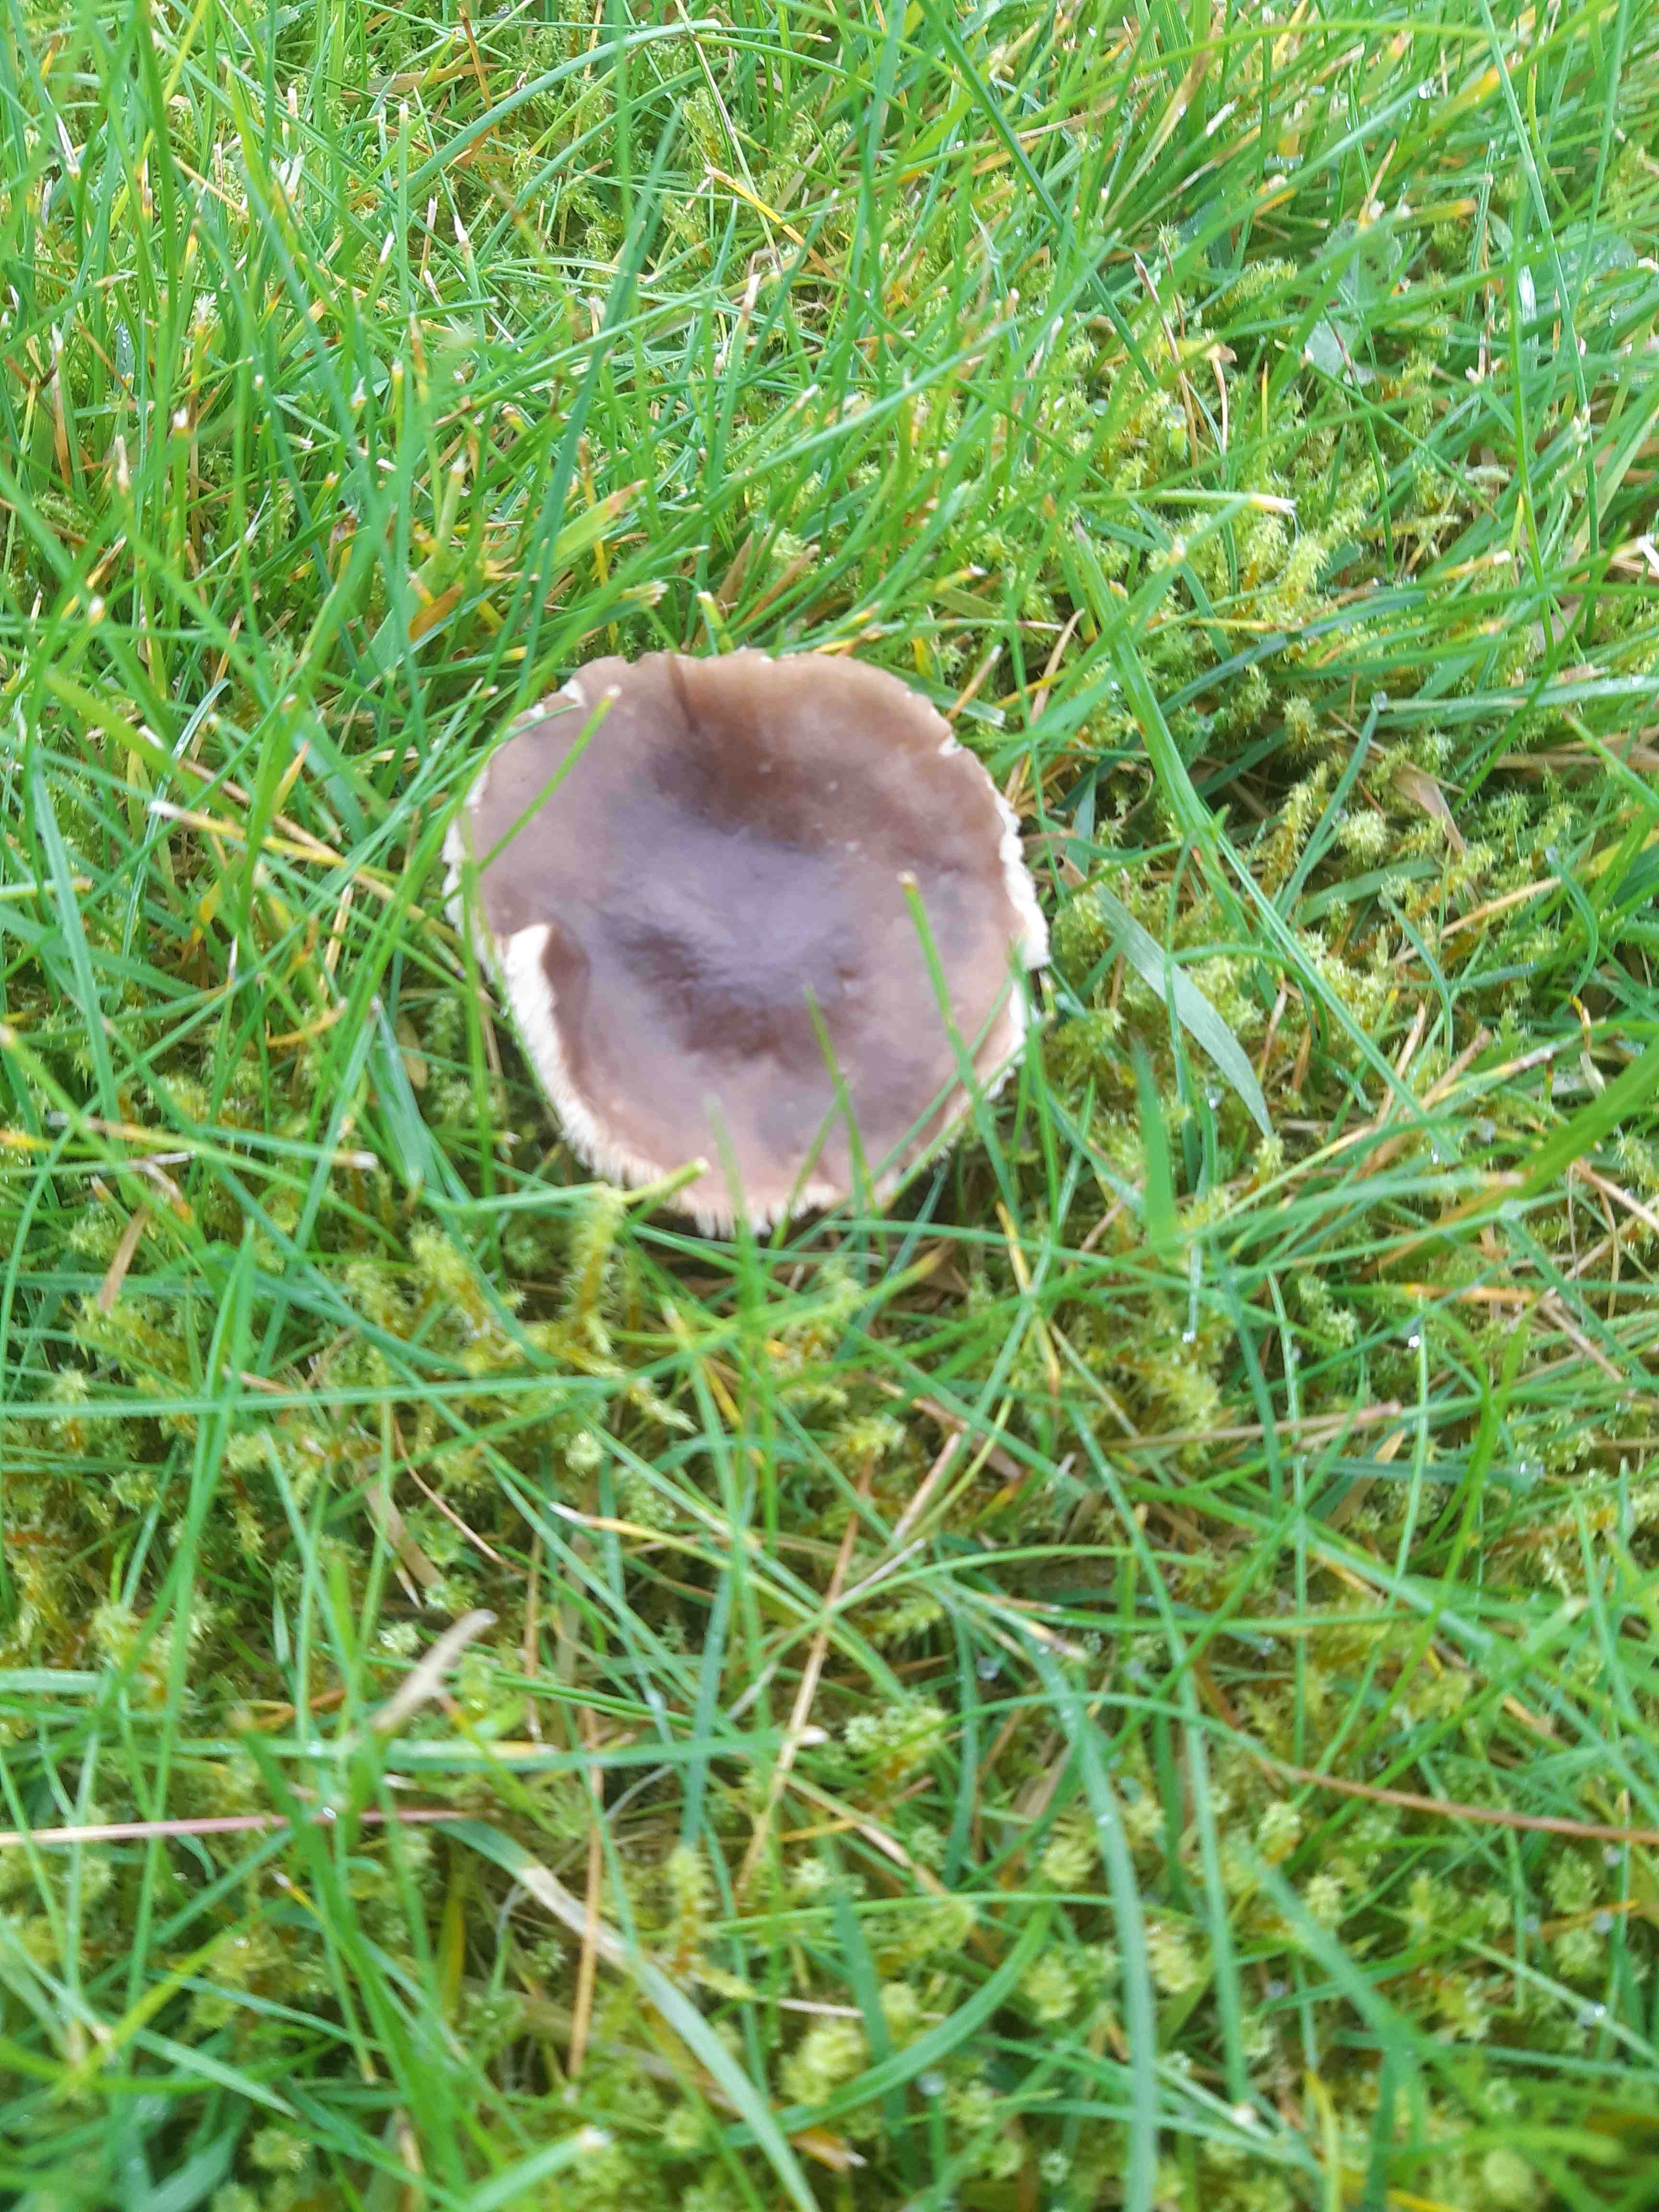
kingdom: Fungi
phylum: Basidiomycota
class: Agaricomycetes
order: Agaricales
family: Tricholomataceae
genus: Melanoleuca
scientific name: Melanoleuca
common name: munkehat
